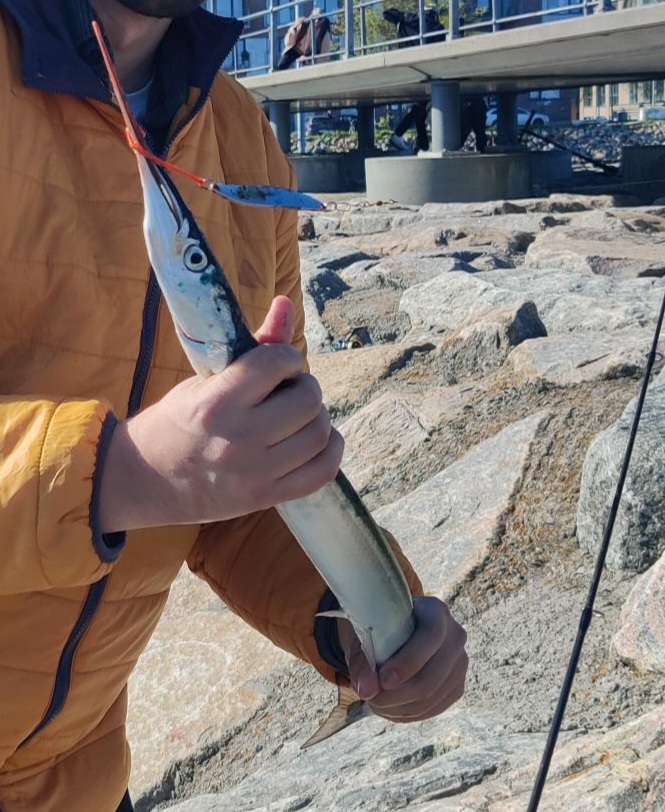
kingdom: Animalia
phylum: Chordata
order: Beloniformes
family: Belonidae
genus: Belone
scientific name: Belone belone
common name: Hornfisk
